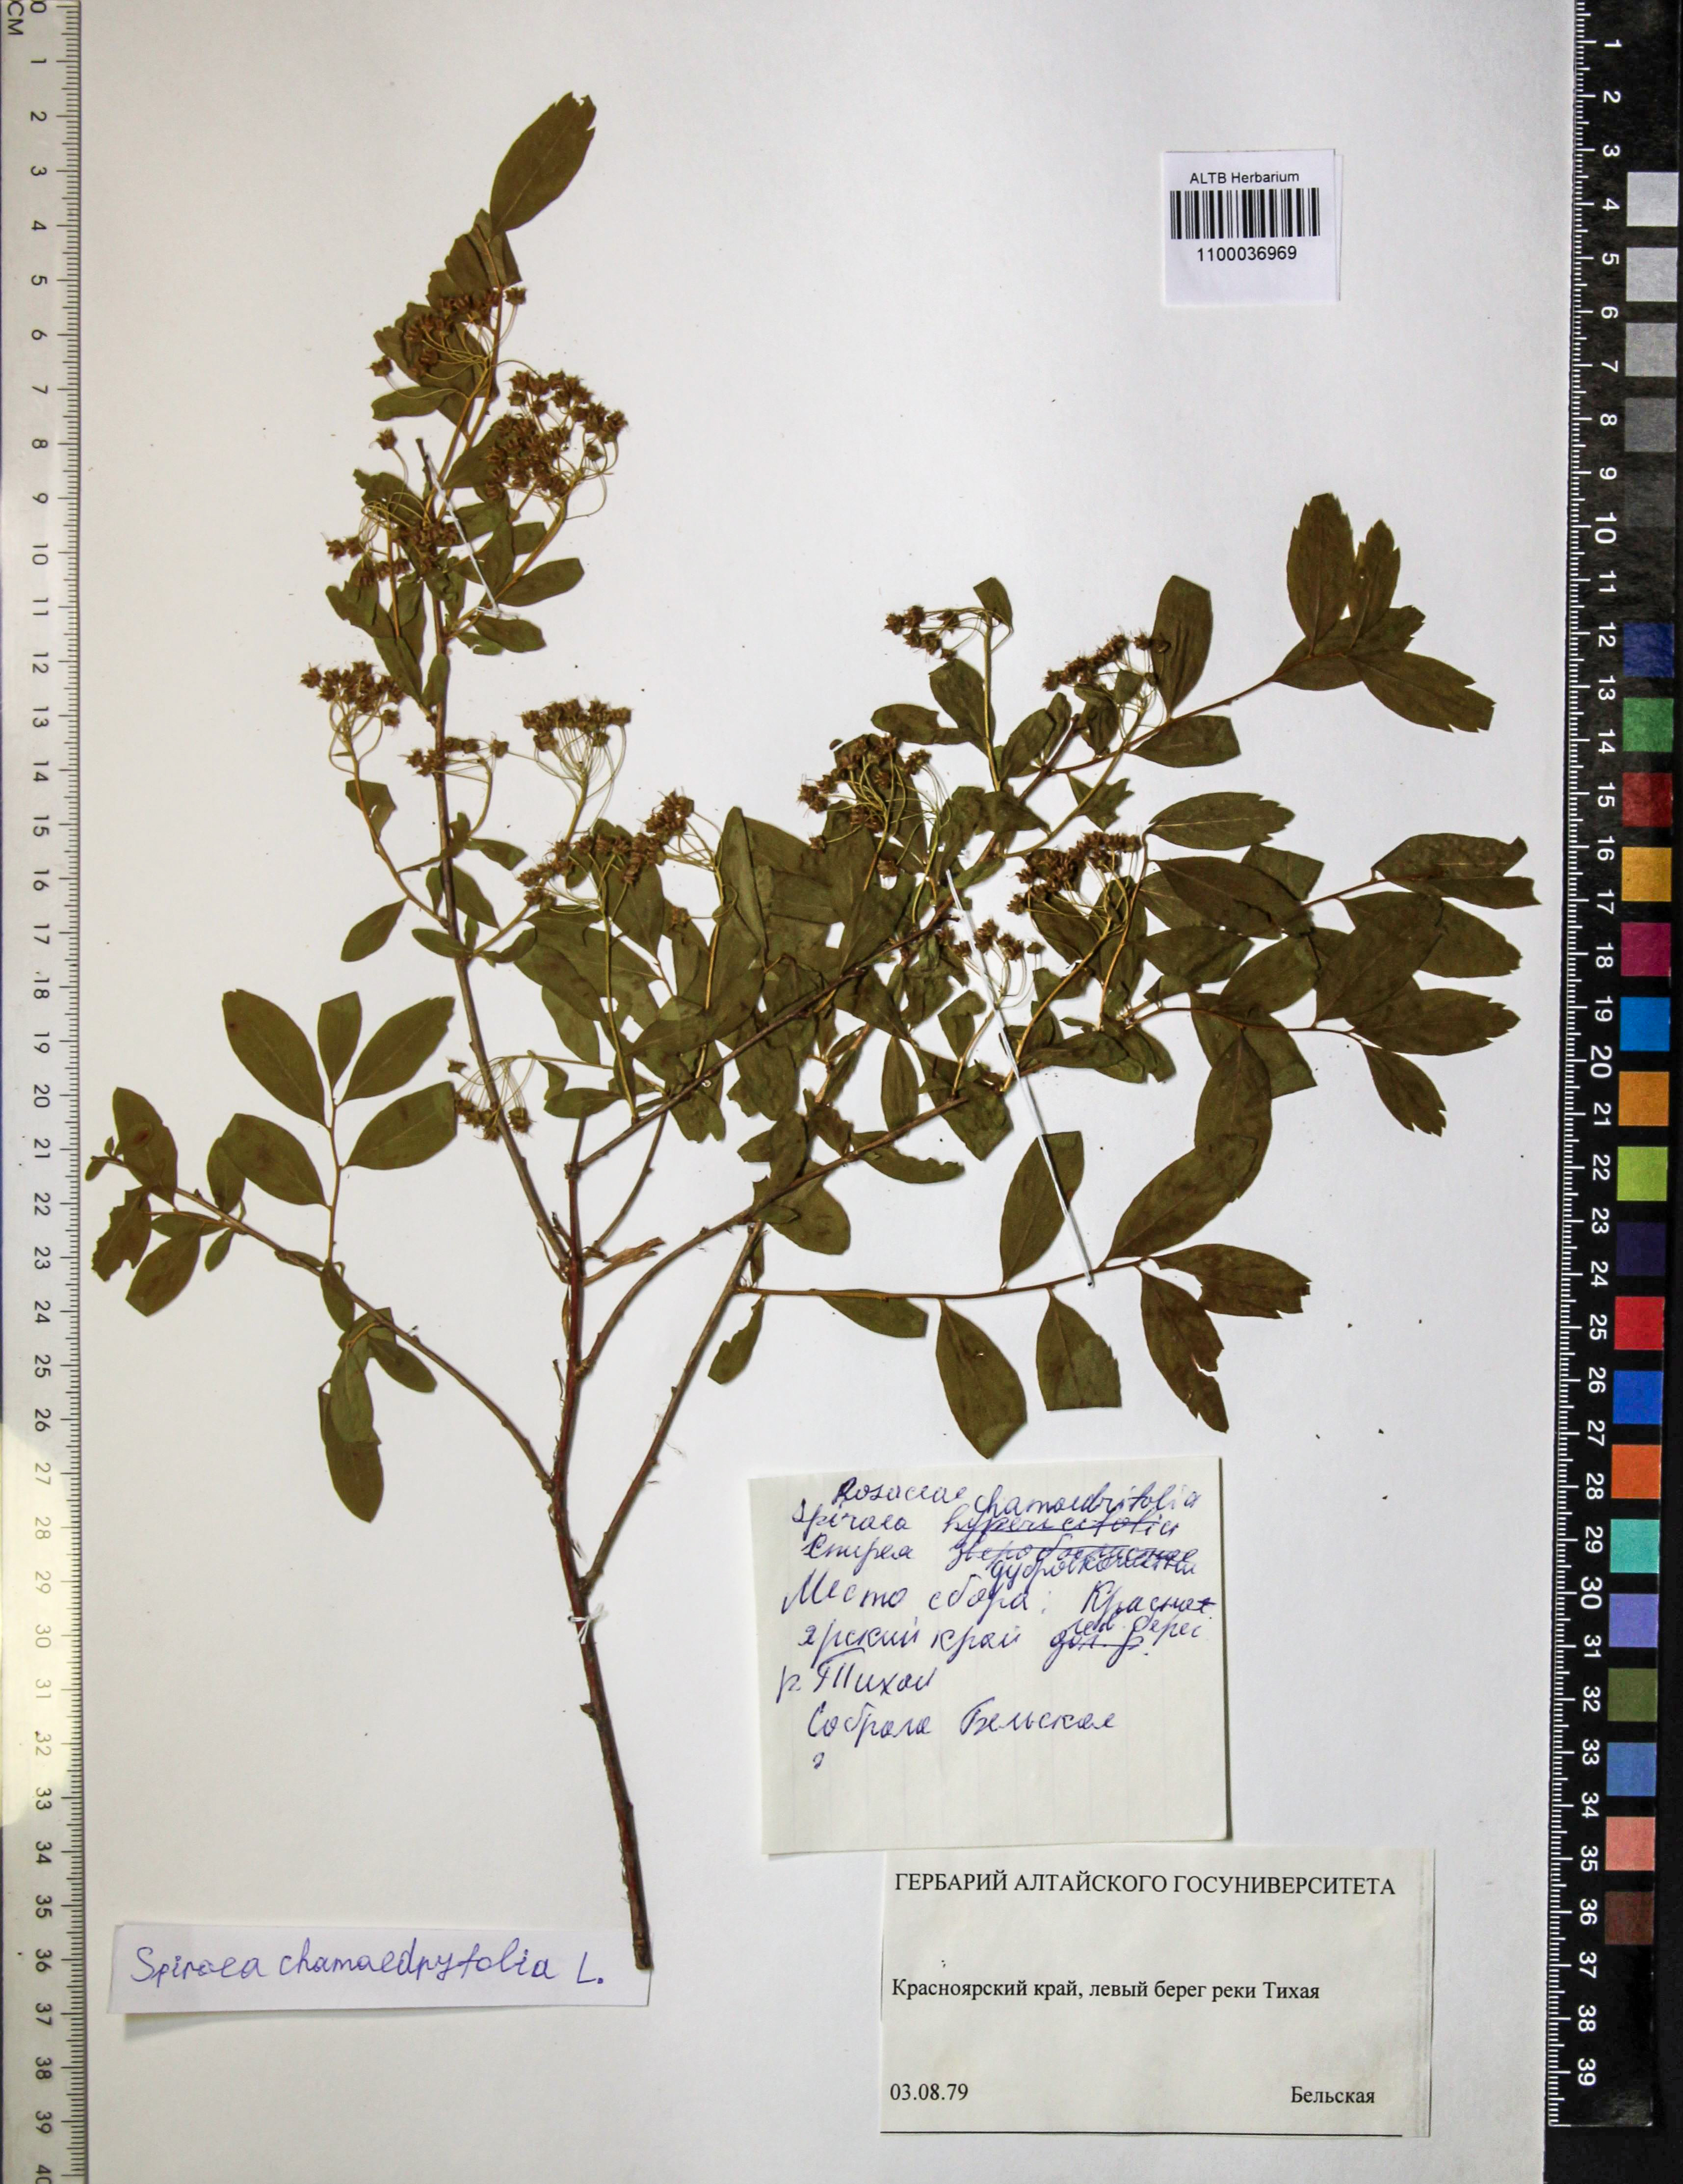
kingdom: Plantae
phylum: Tracheophyta
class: Magnoliopsida
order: Rosales
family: Rosaceae
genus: Spiraea
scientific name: Spiraea chamaedryfolia
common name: Elm-leaved spiraea
